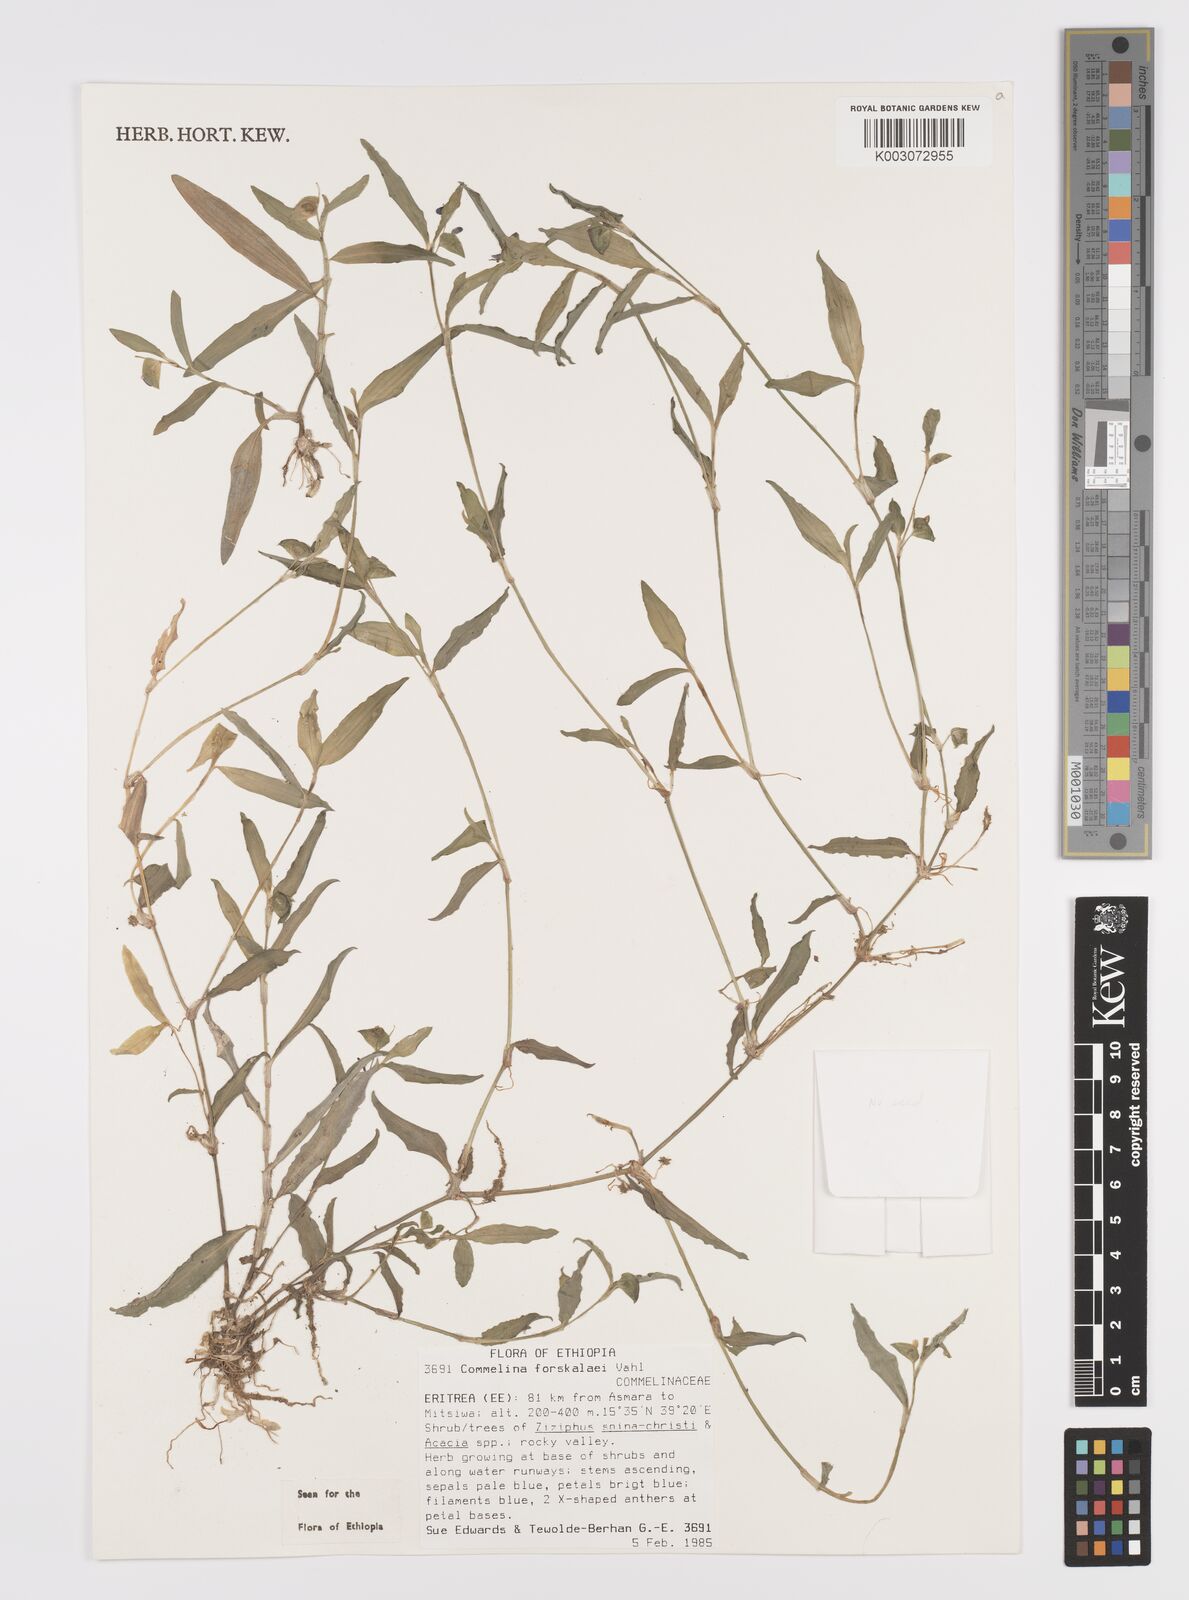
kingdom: Plantae
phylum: Tracheophyta
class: Liliopsida
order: Commelinales
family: Commelinaceae
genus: Commelina
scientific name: Commelina forskaolii
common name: Rat's ear
